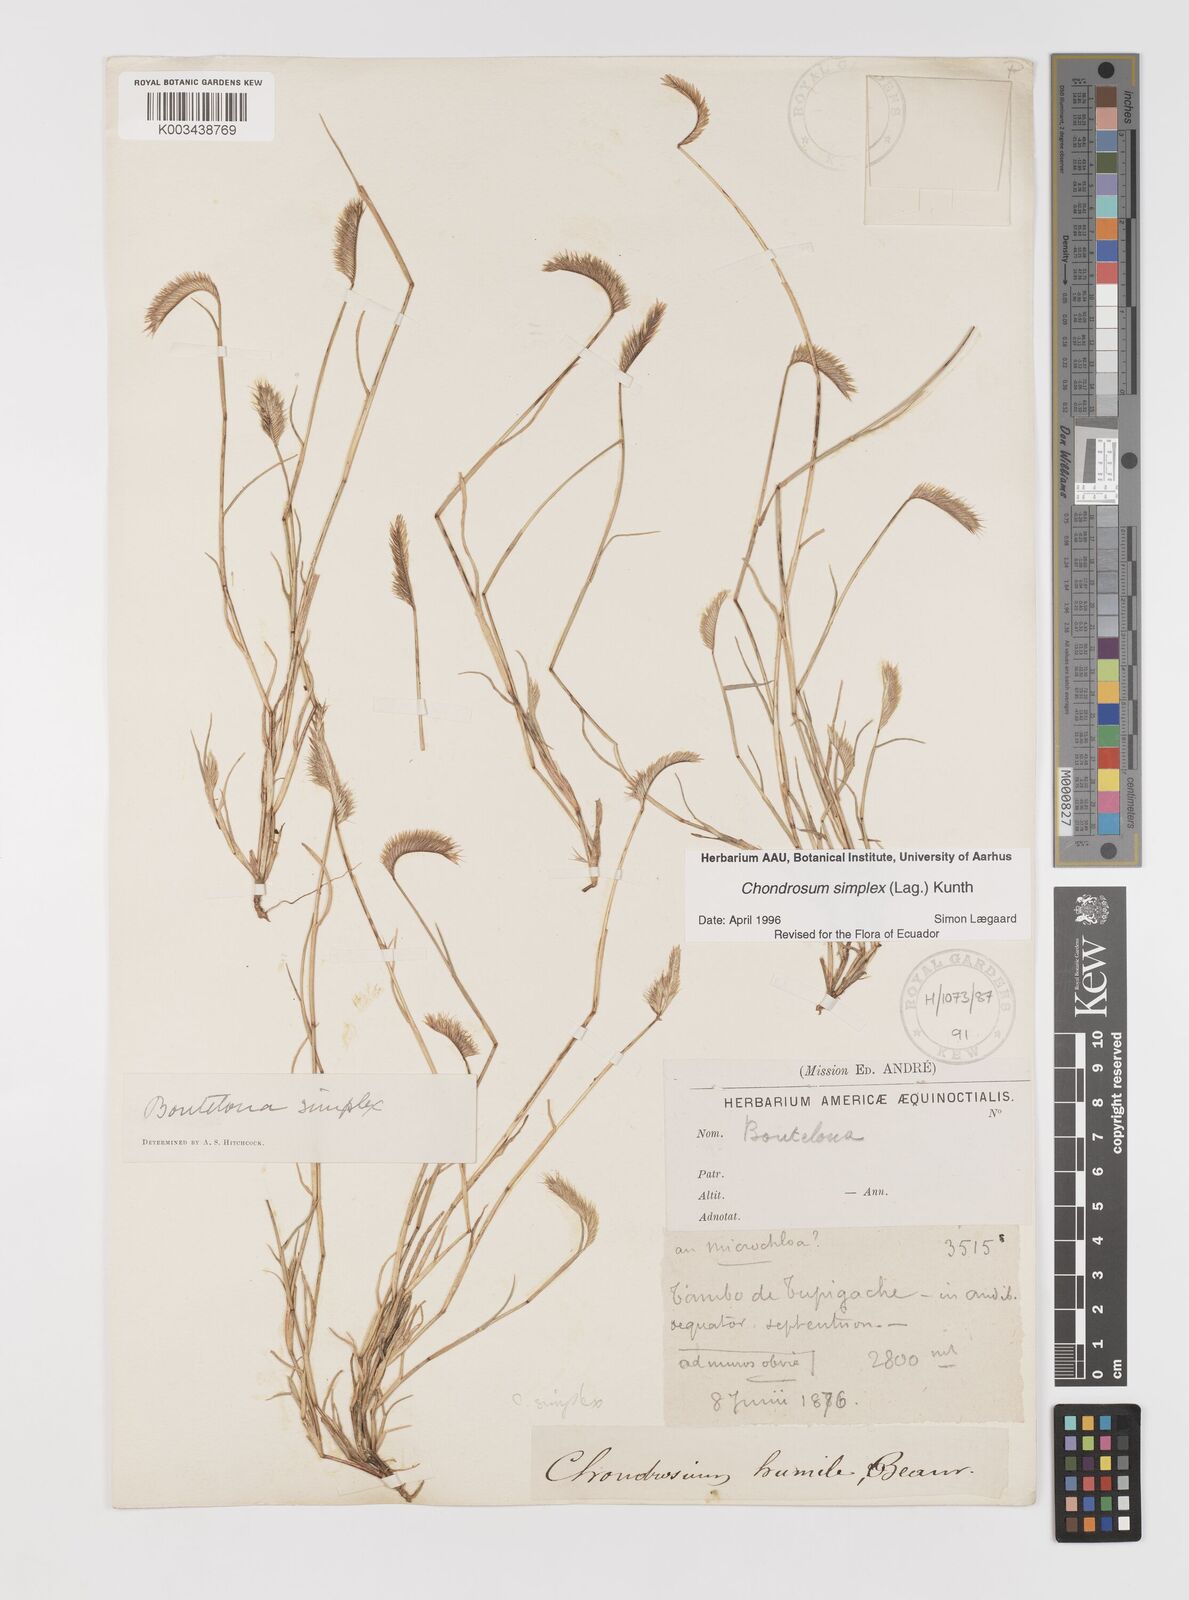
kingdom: Plantae
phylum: Tracheophyta
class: Liliopsida
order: Poales
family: Poaceae
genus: Bouteloua
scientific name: Bouteloua simplex
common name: Mat grama
